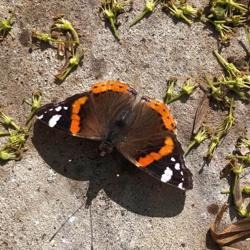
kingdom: Animalia
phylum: Arthropoda
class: Insecta
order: Lepidoptera
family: Nymphalidae
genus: Vanessa
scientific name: Vanessa atalanta
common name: Admiral
